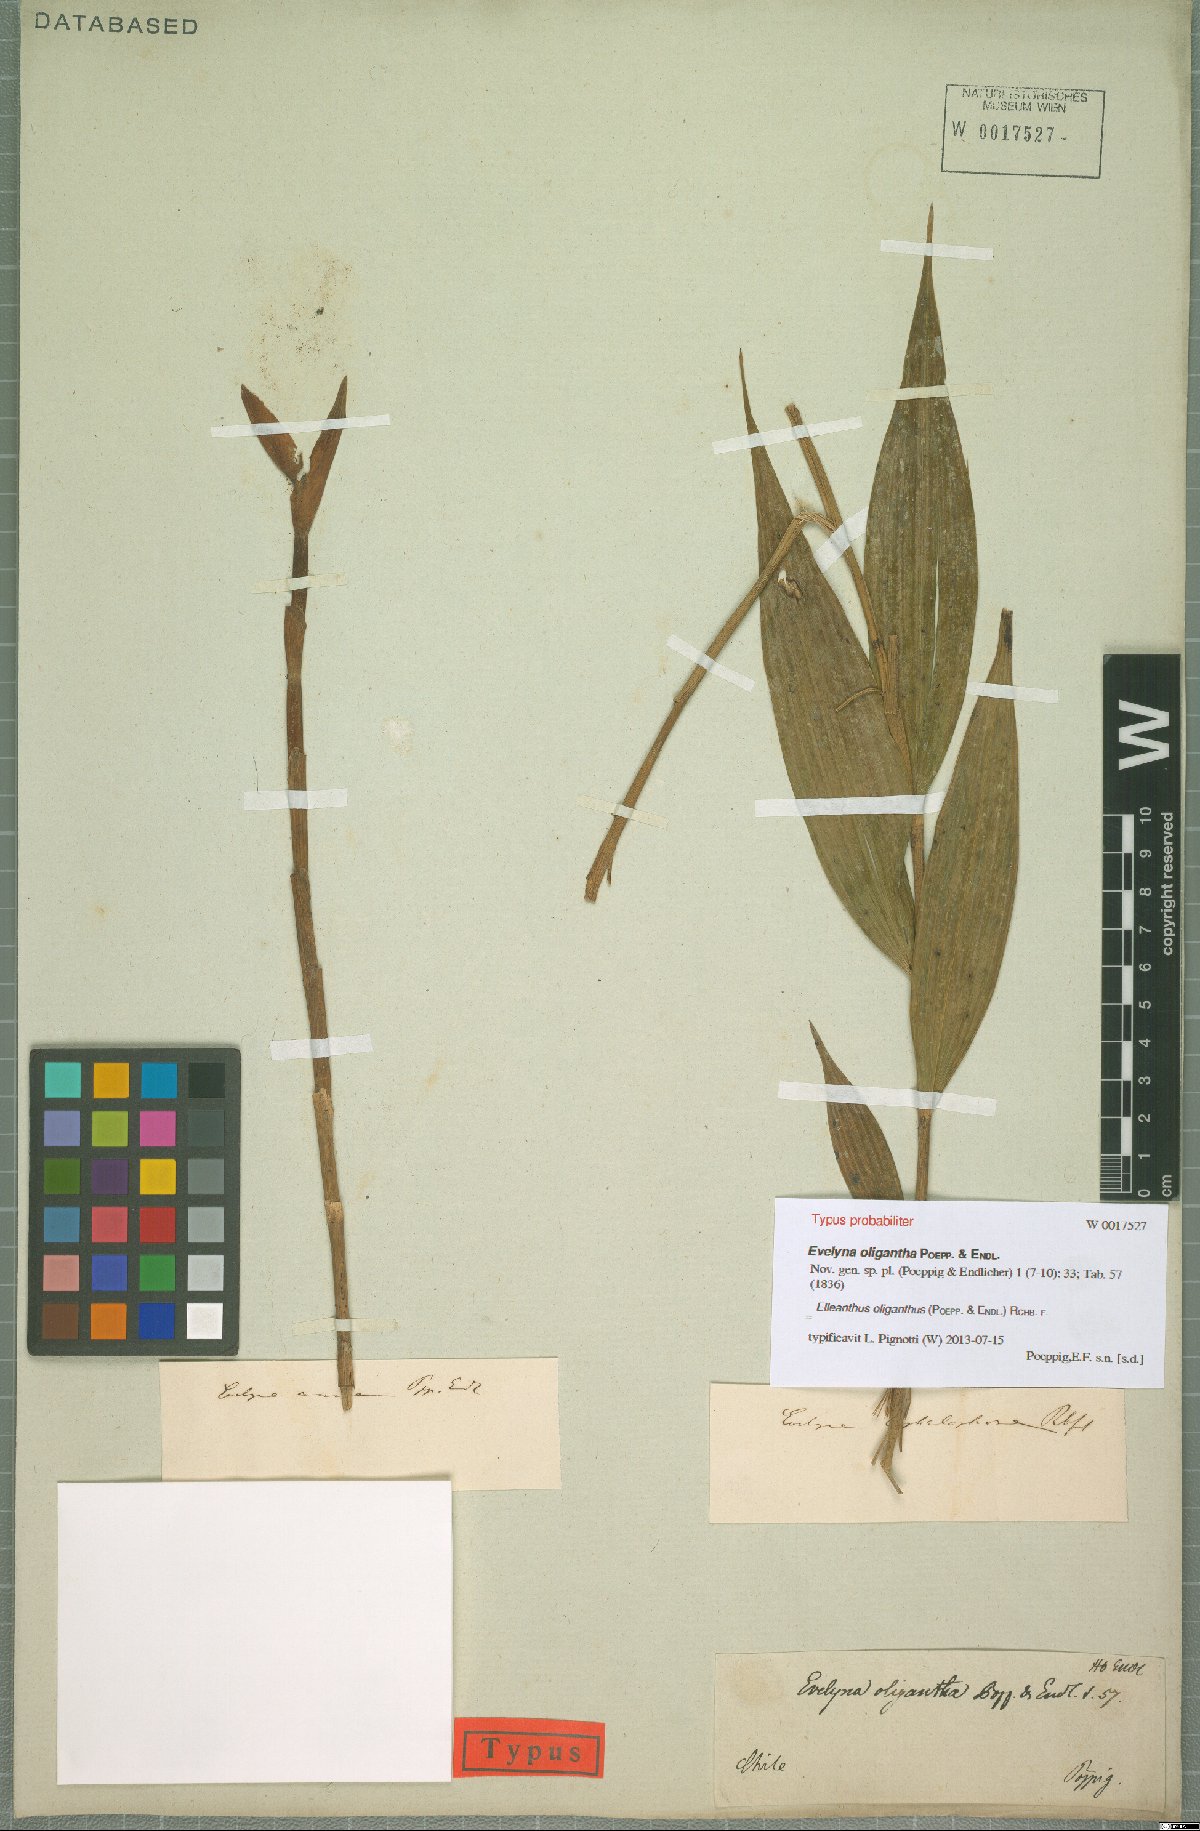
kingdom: Plantae
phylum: Tracheophyta
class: Liliopsida
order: Asparagales
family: Orchidaceae
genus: Elleanthus
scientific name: Elleanthus oliganthus
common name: Sparse blooming elleanthus
